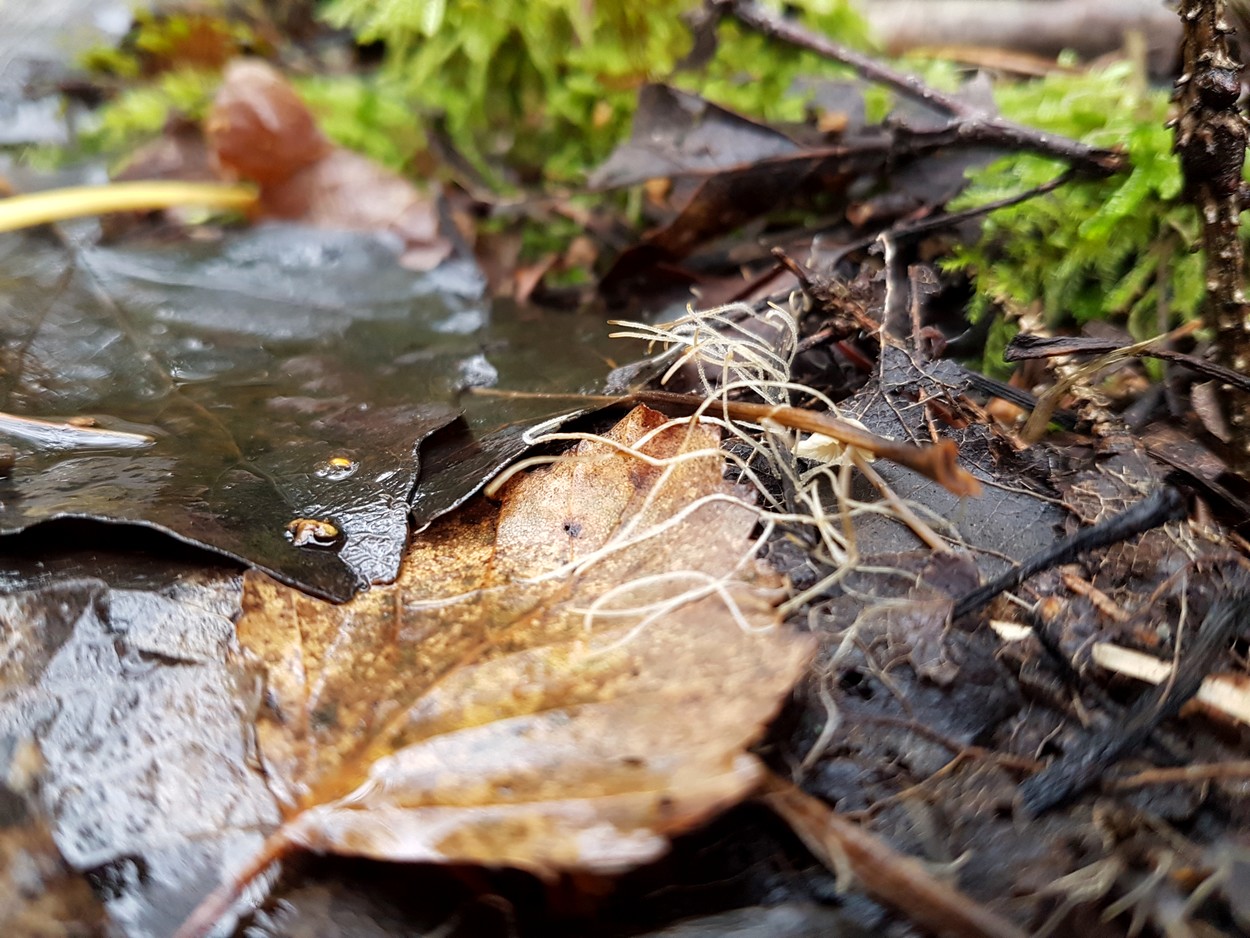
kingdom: Fungi
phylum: Basidiomycota
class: Agaricomycetes
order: Agaricales
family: Typhulaceae
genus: Typhula
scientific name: Typhula juncea
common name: trådagtig rørkølle
